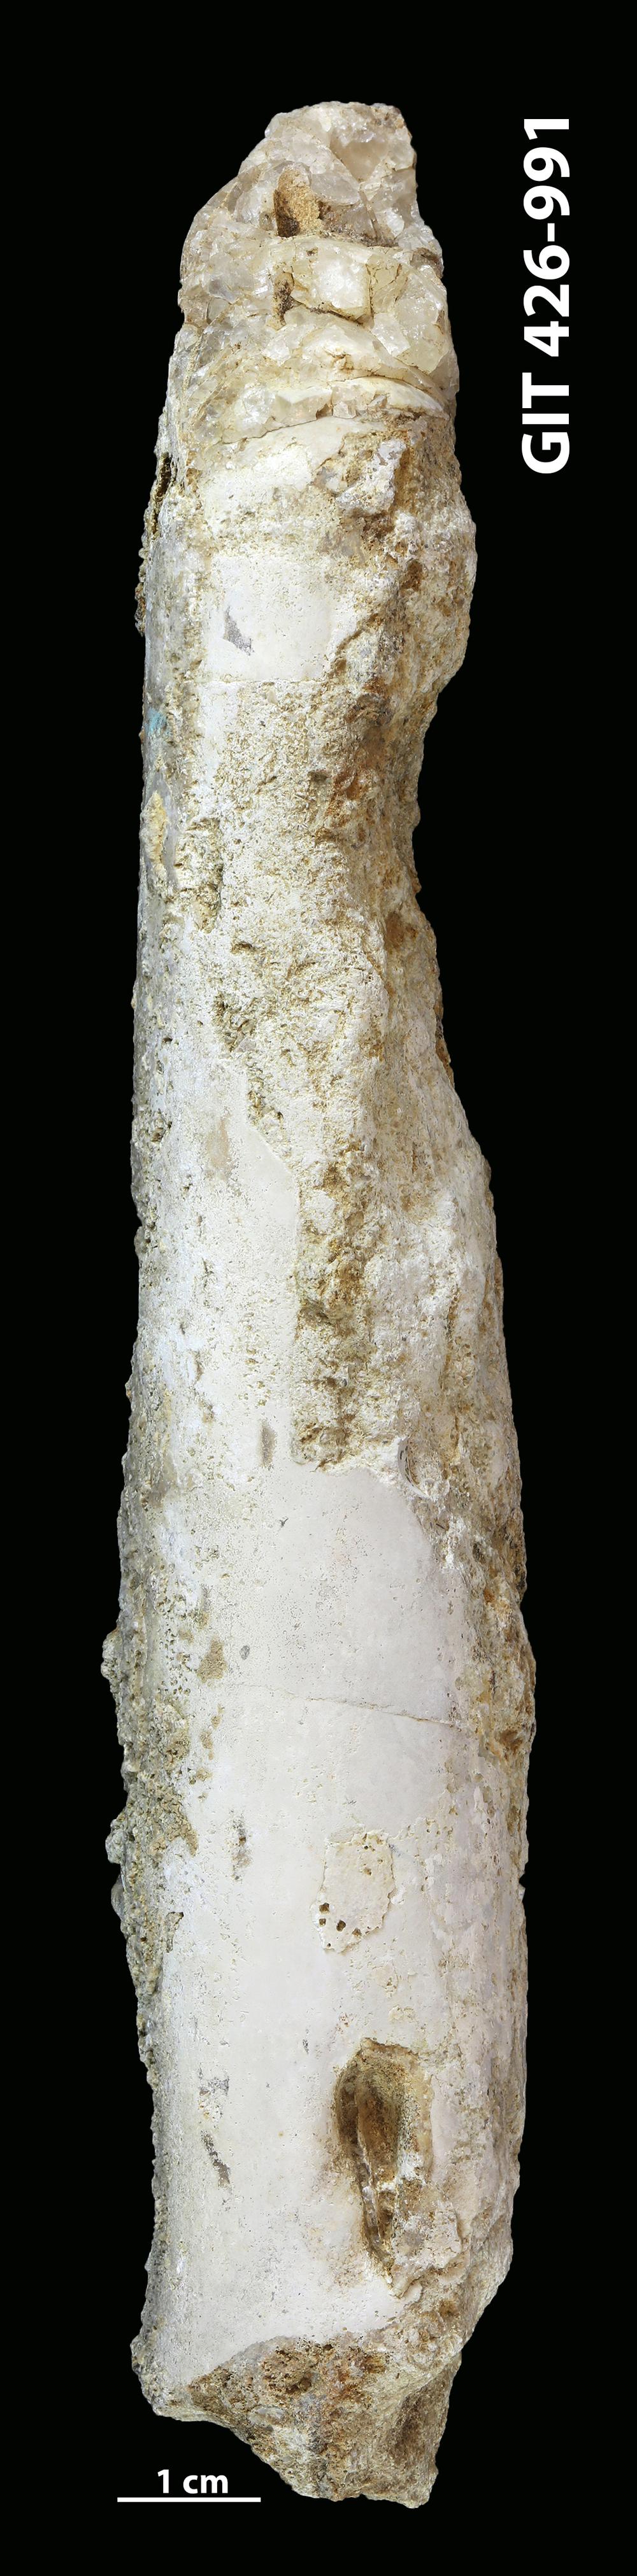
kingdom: Animalia
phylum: Mollusca
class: Cephalopoda
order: Orthocerida
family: Orthoceratidae
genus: Orthoceras
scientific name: Orthoceras
